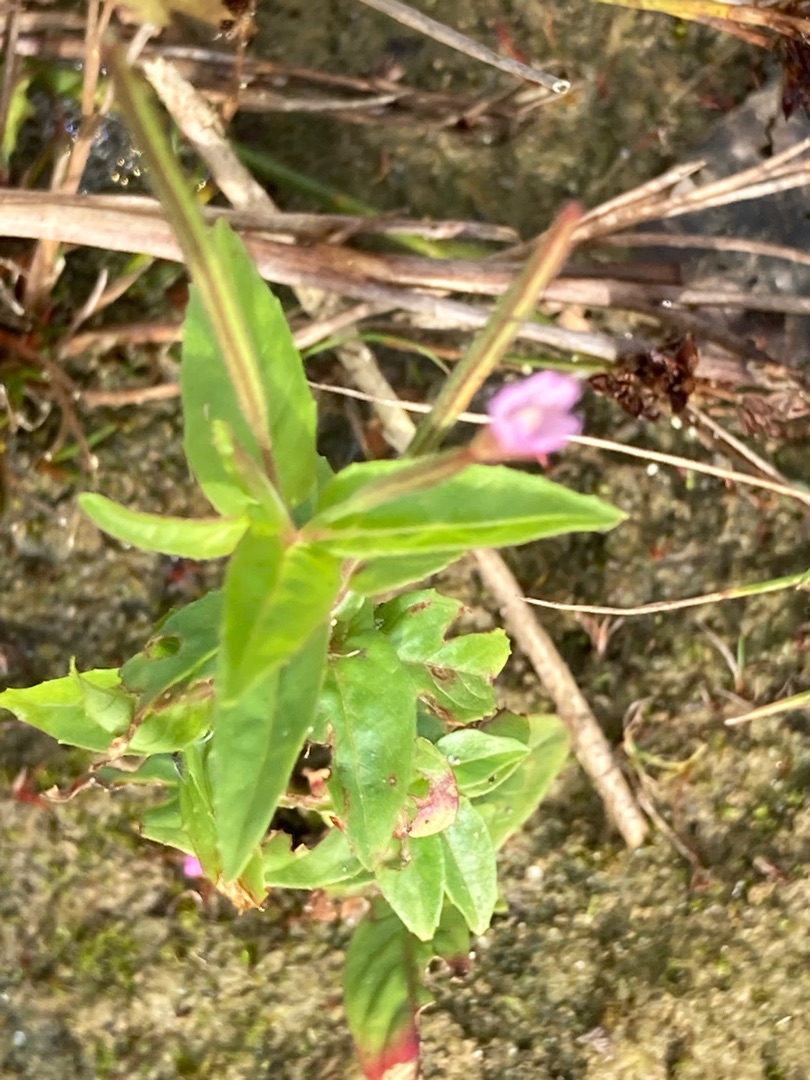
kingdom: Plantae
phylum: Tracheophyta
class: Magnoliopsida
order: Myrtales
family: Onagraceae
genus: Epilobium
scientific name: Epilobium ciliatum
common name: Alaska-dueurt
